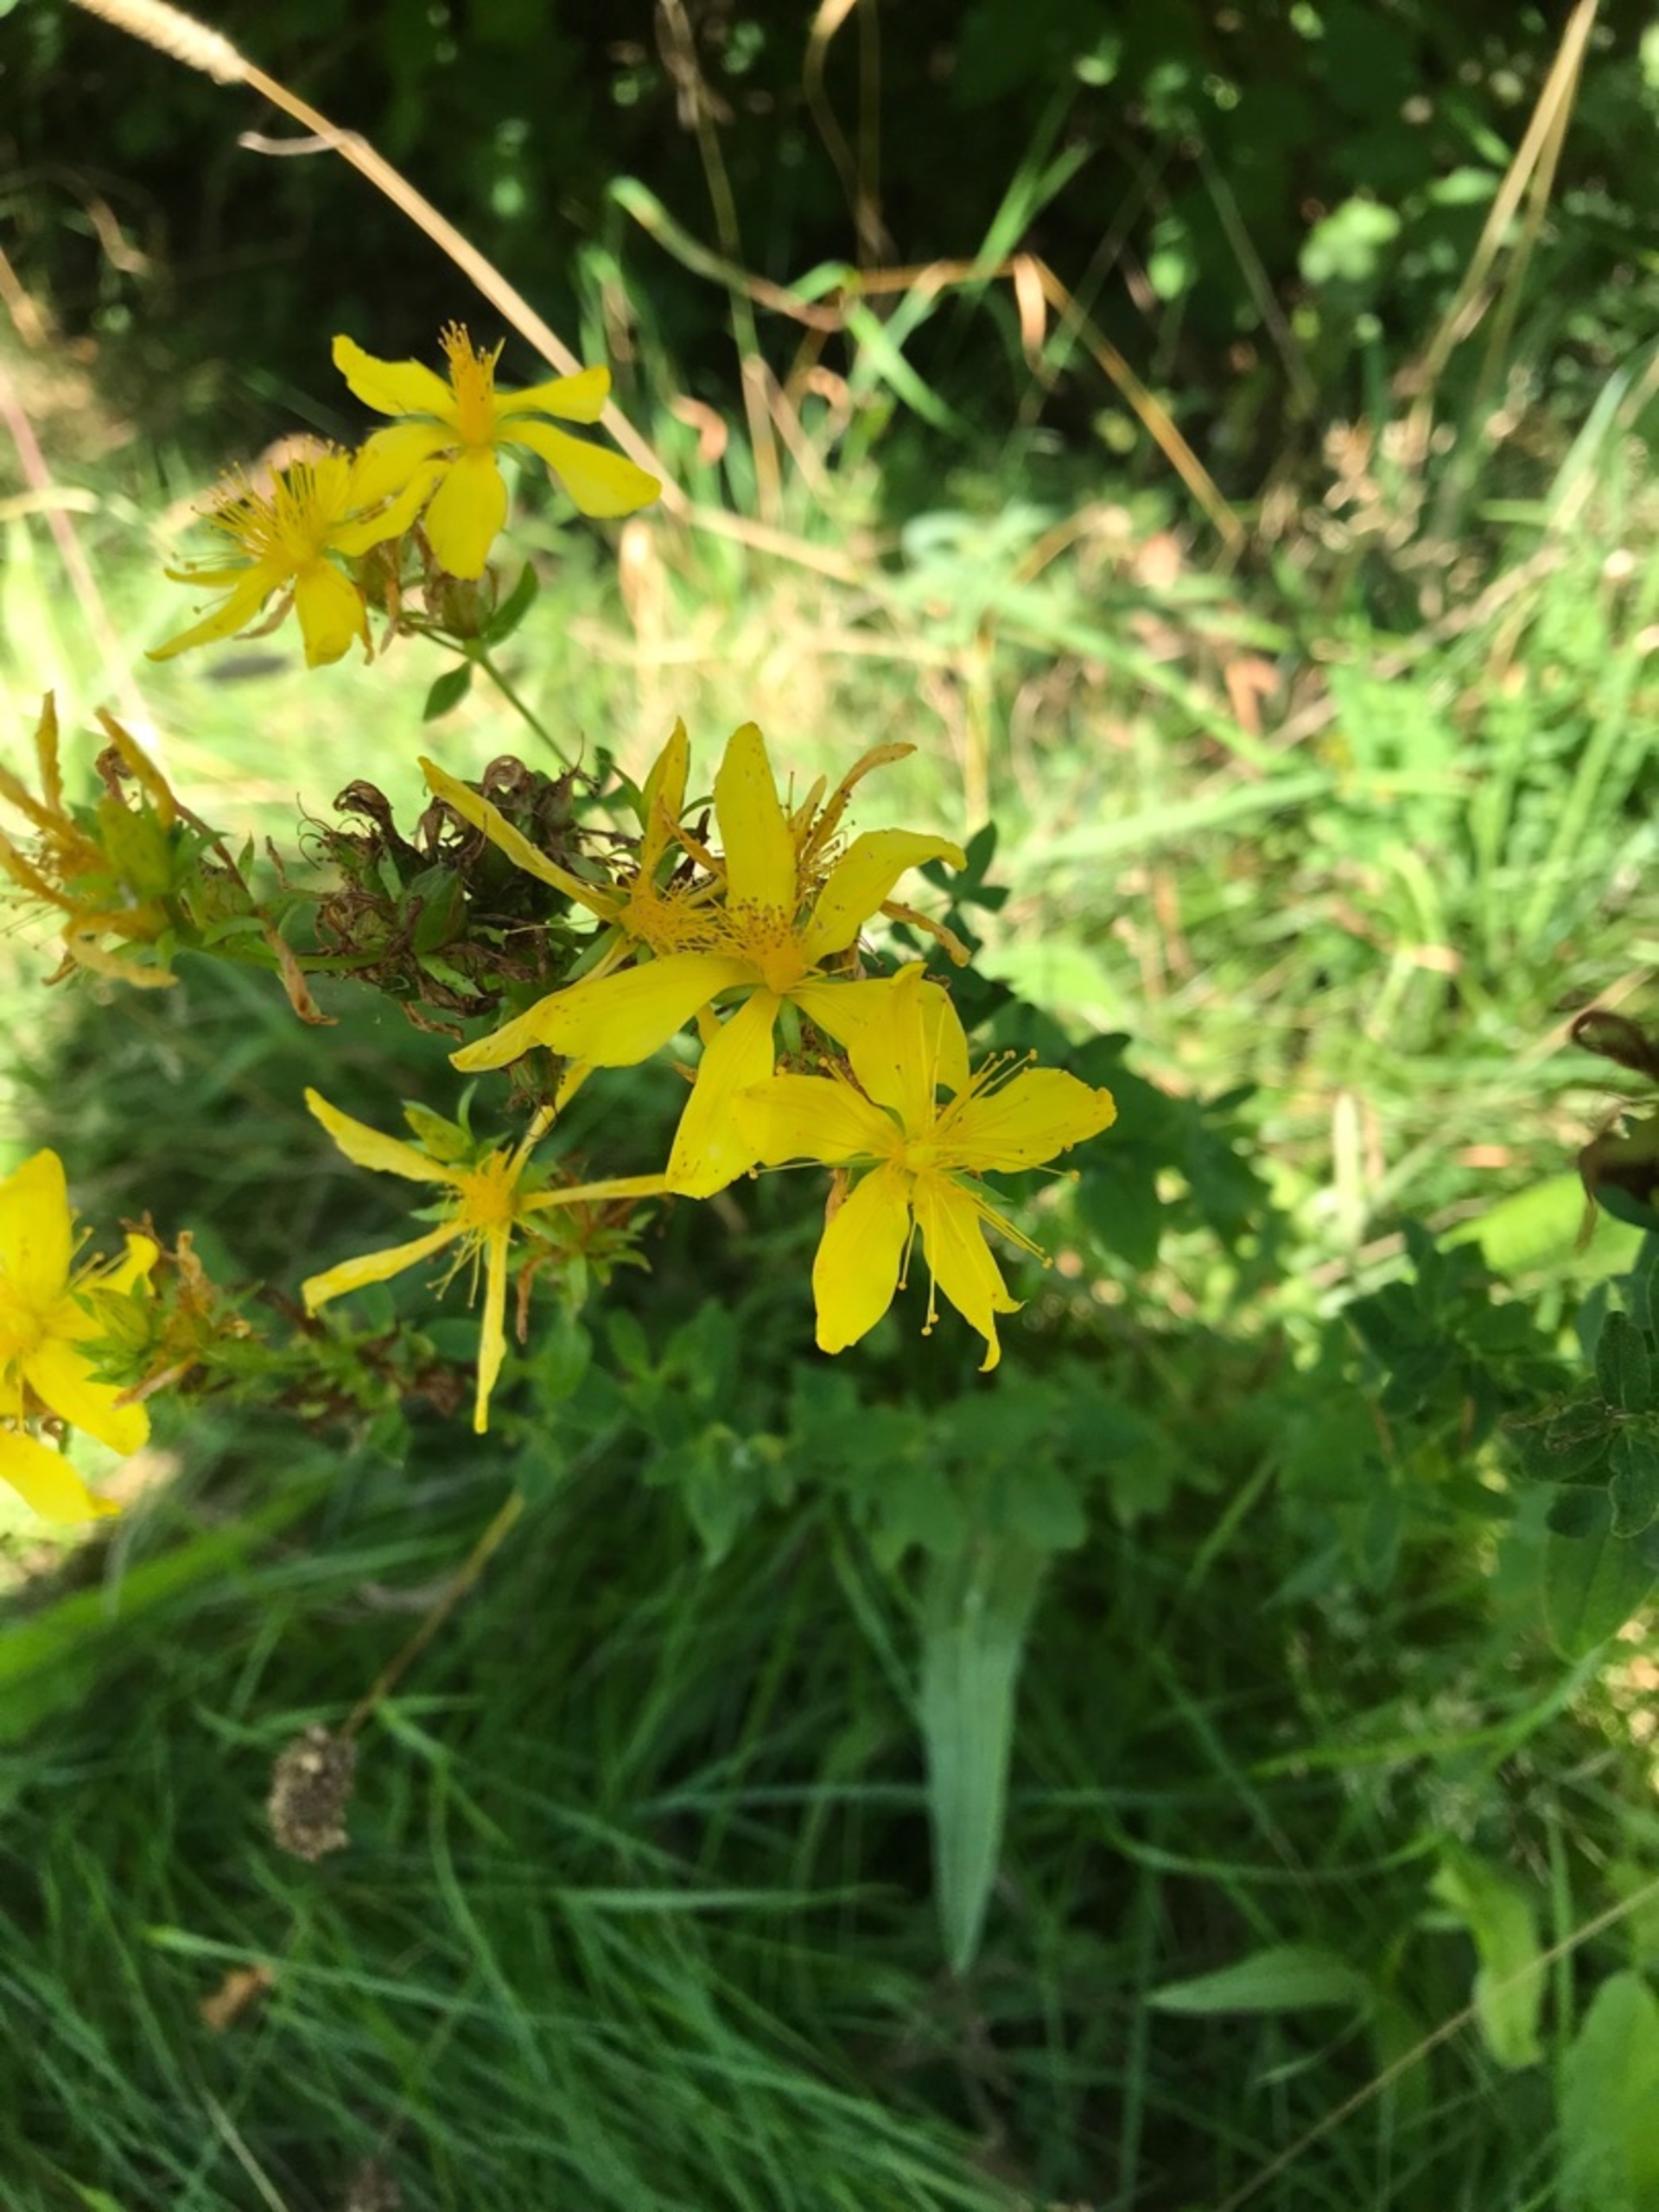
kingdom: Plantae
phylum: Tracheophyta
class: Magnoliopsida
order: Malpighiales
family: Hypericaceae
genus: Hypericum
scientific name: Hypericum perforatum
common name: Prikbladet perikon
